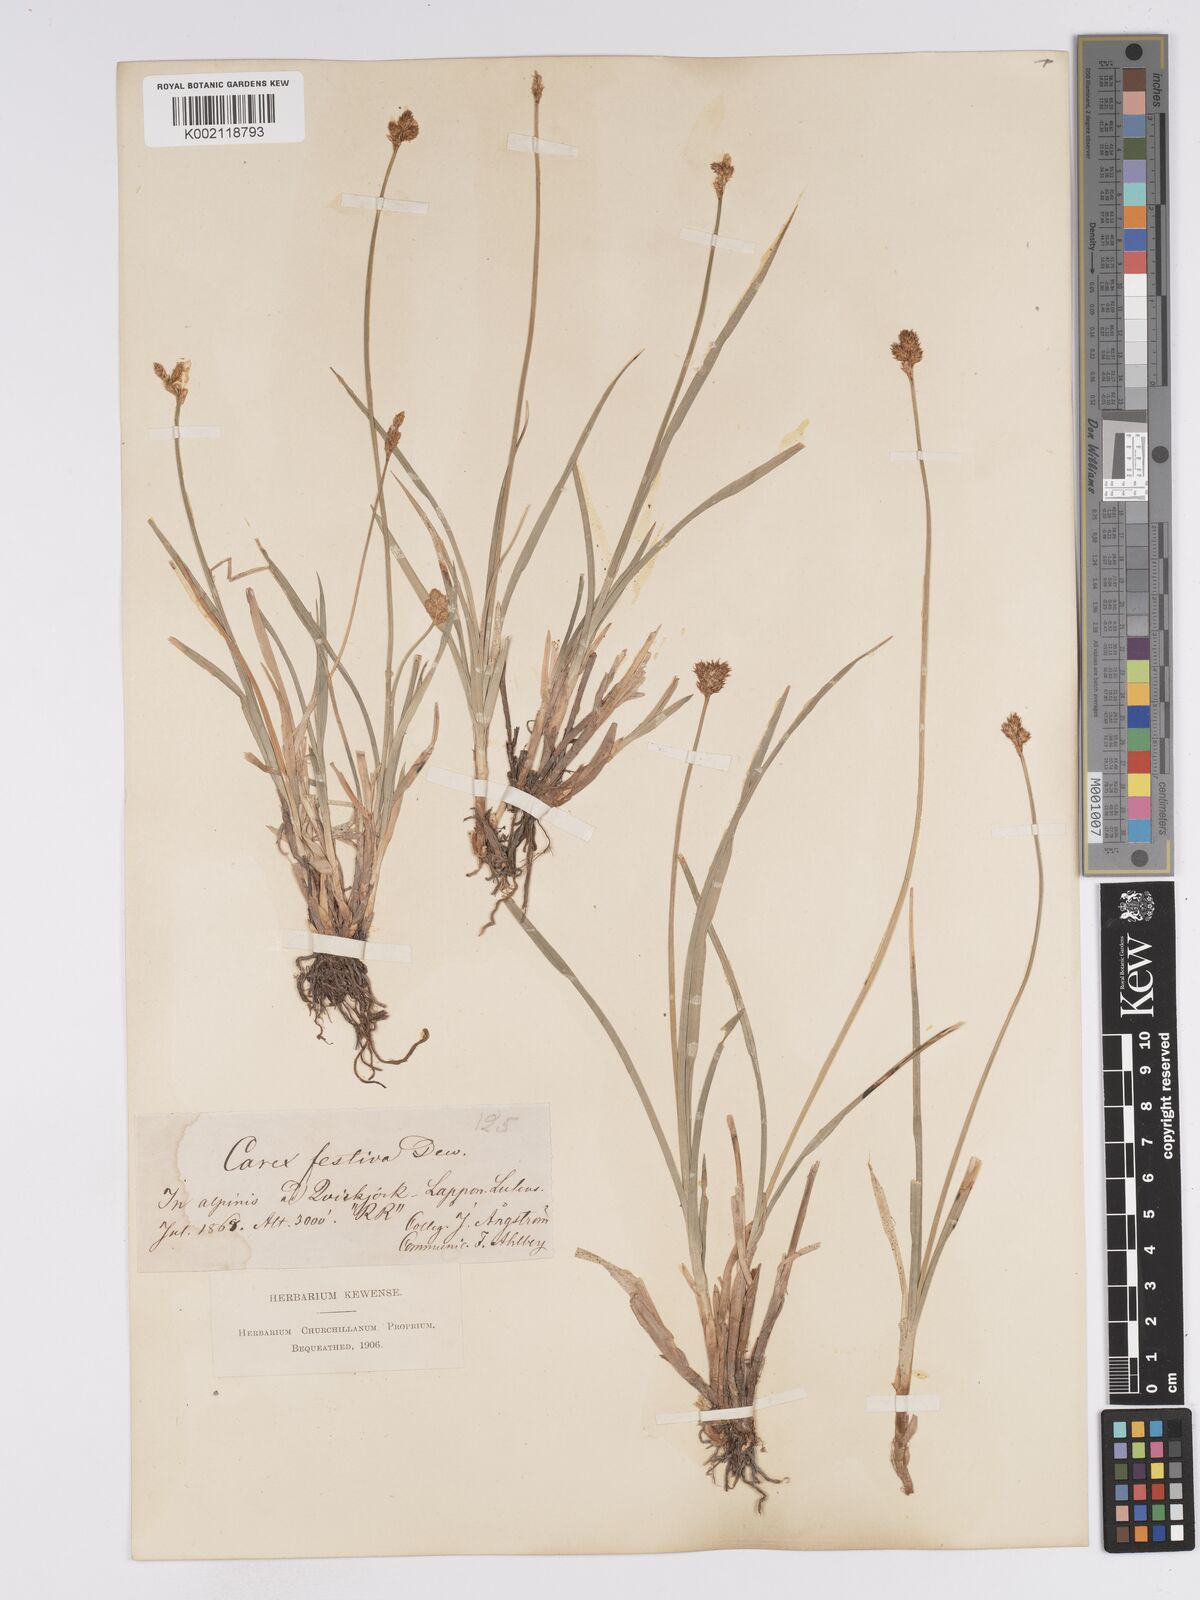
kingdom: Plantae
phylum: Tracheophyta
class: Liliopsida
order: Poales
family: Cyperaceae
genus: Carex
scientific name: Carex macloviana
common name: Falkland island sedge
